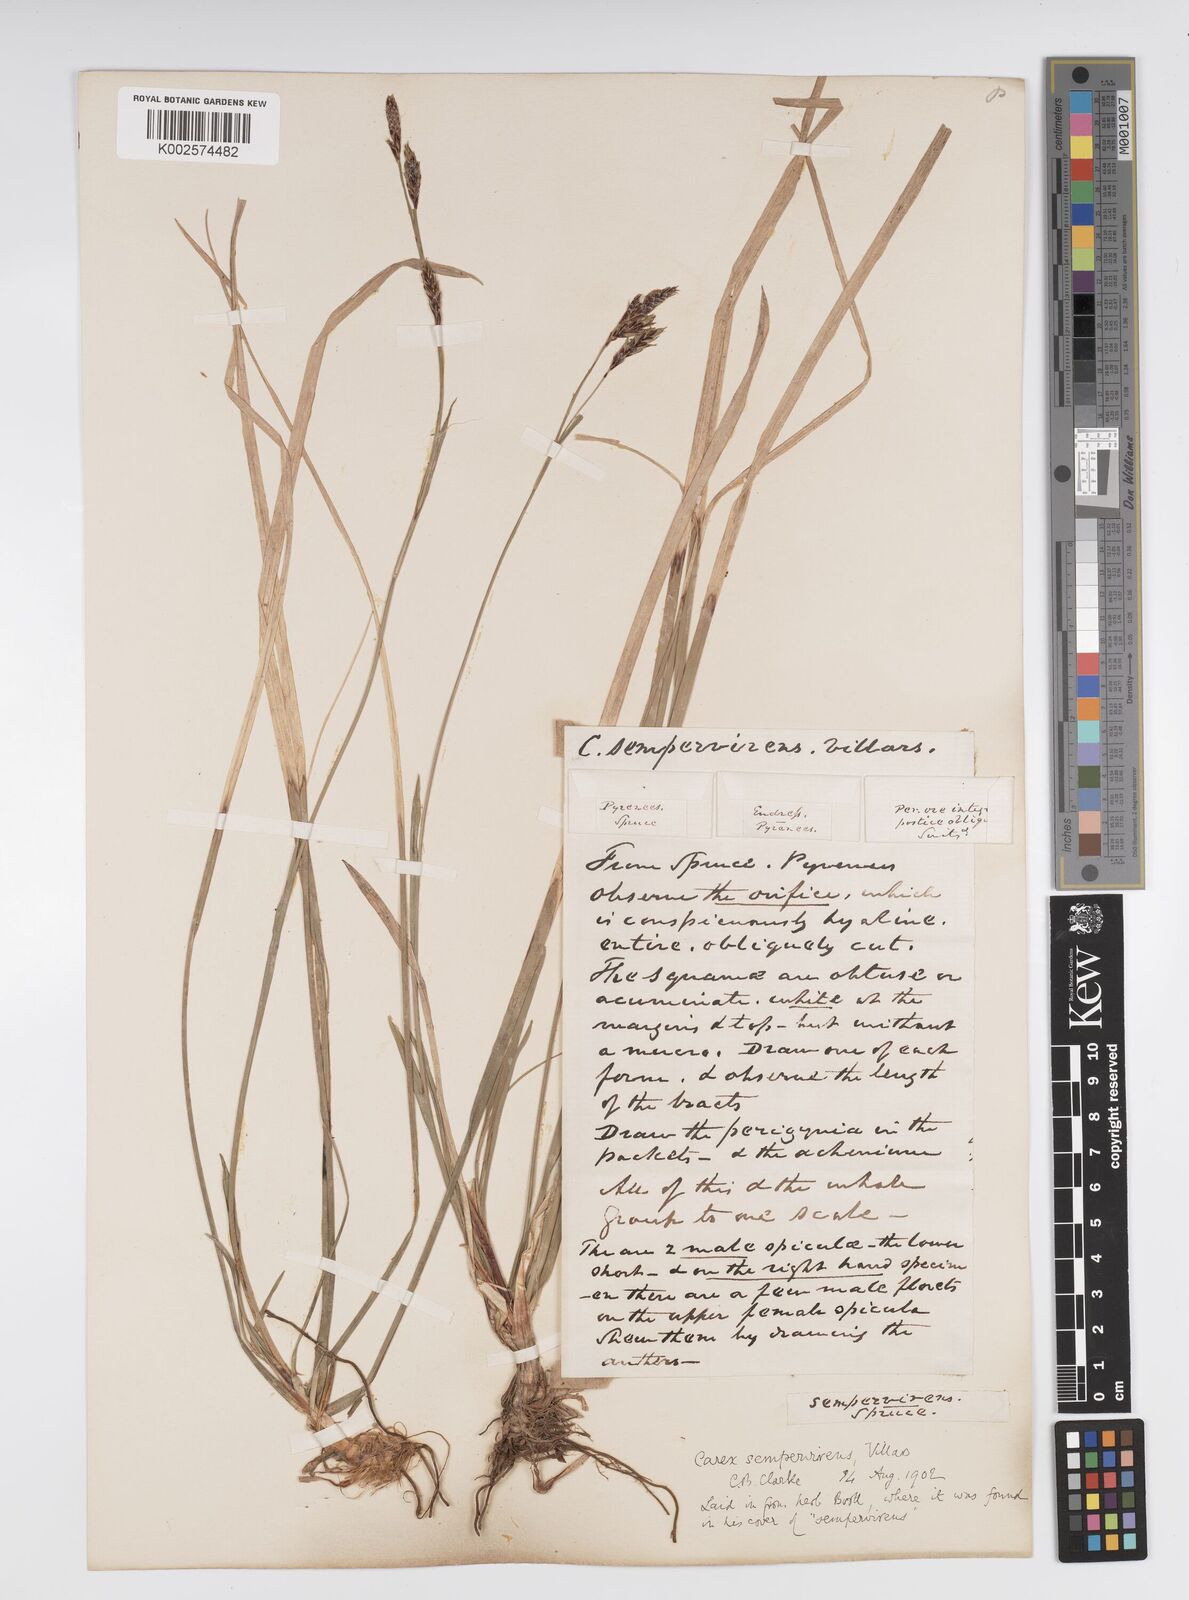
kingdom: Plantae
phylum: Tracheophyta
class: Liliopsida
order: Poales
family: Cyperaceae
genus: Carex
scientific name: Carex sempervirens
